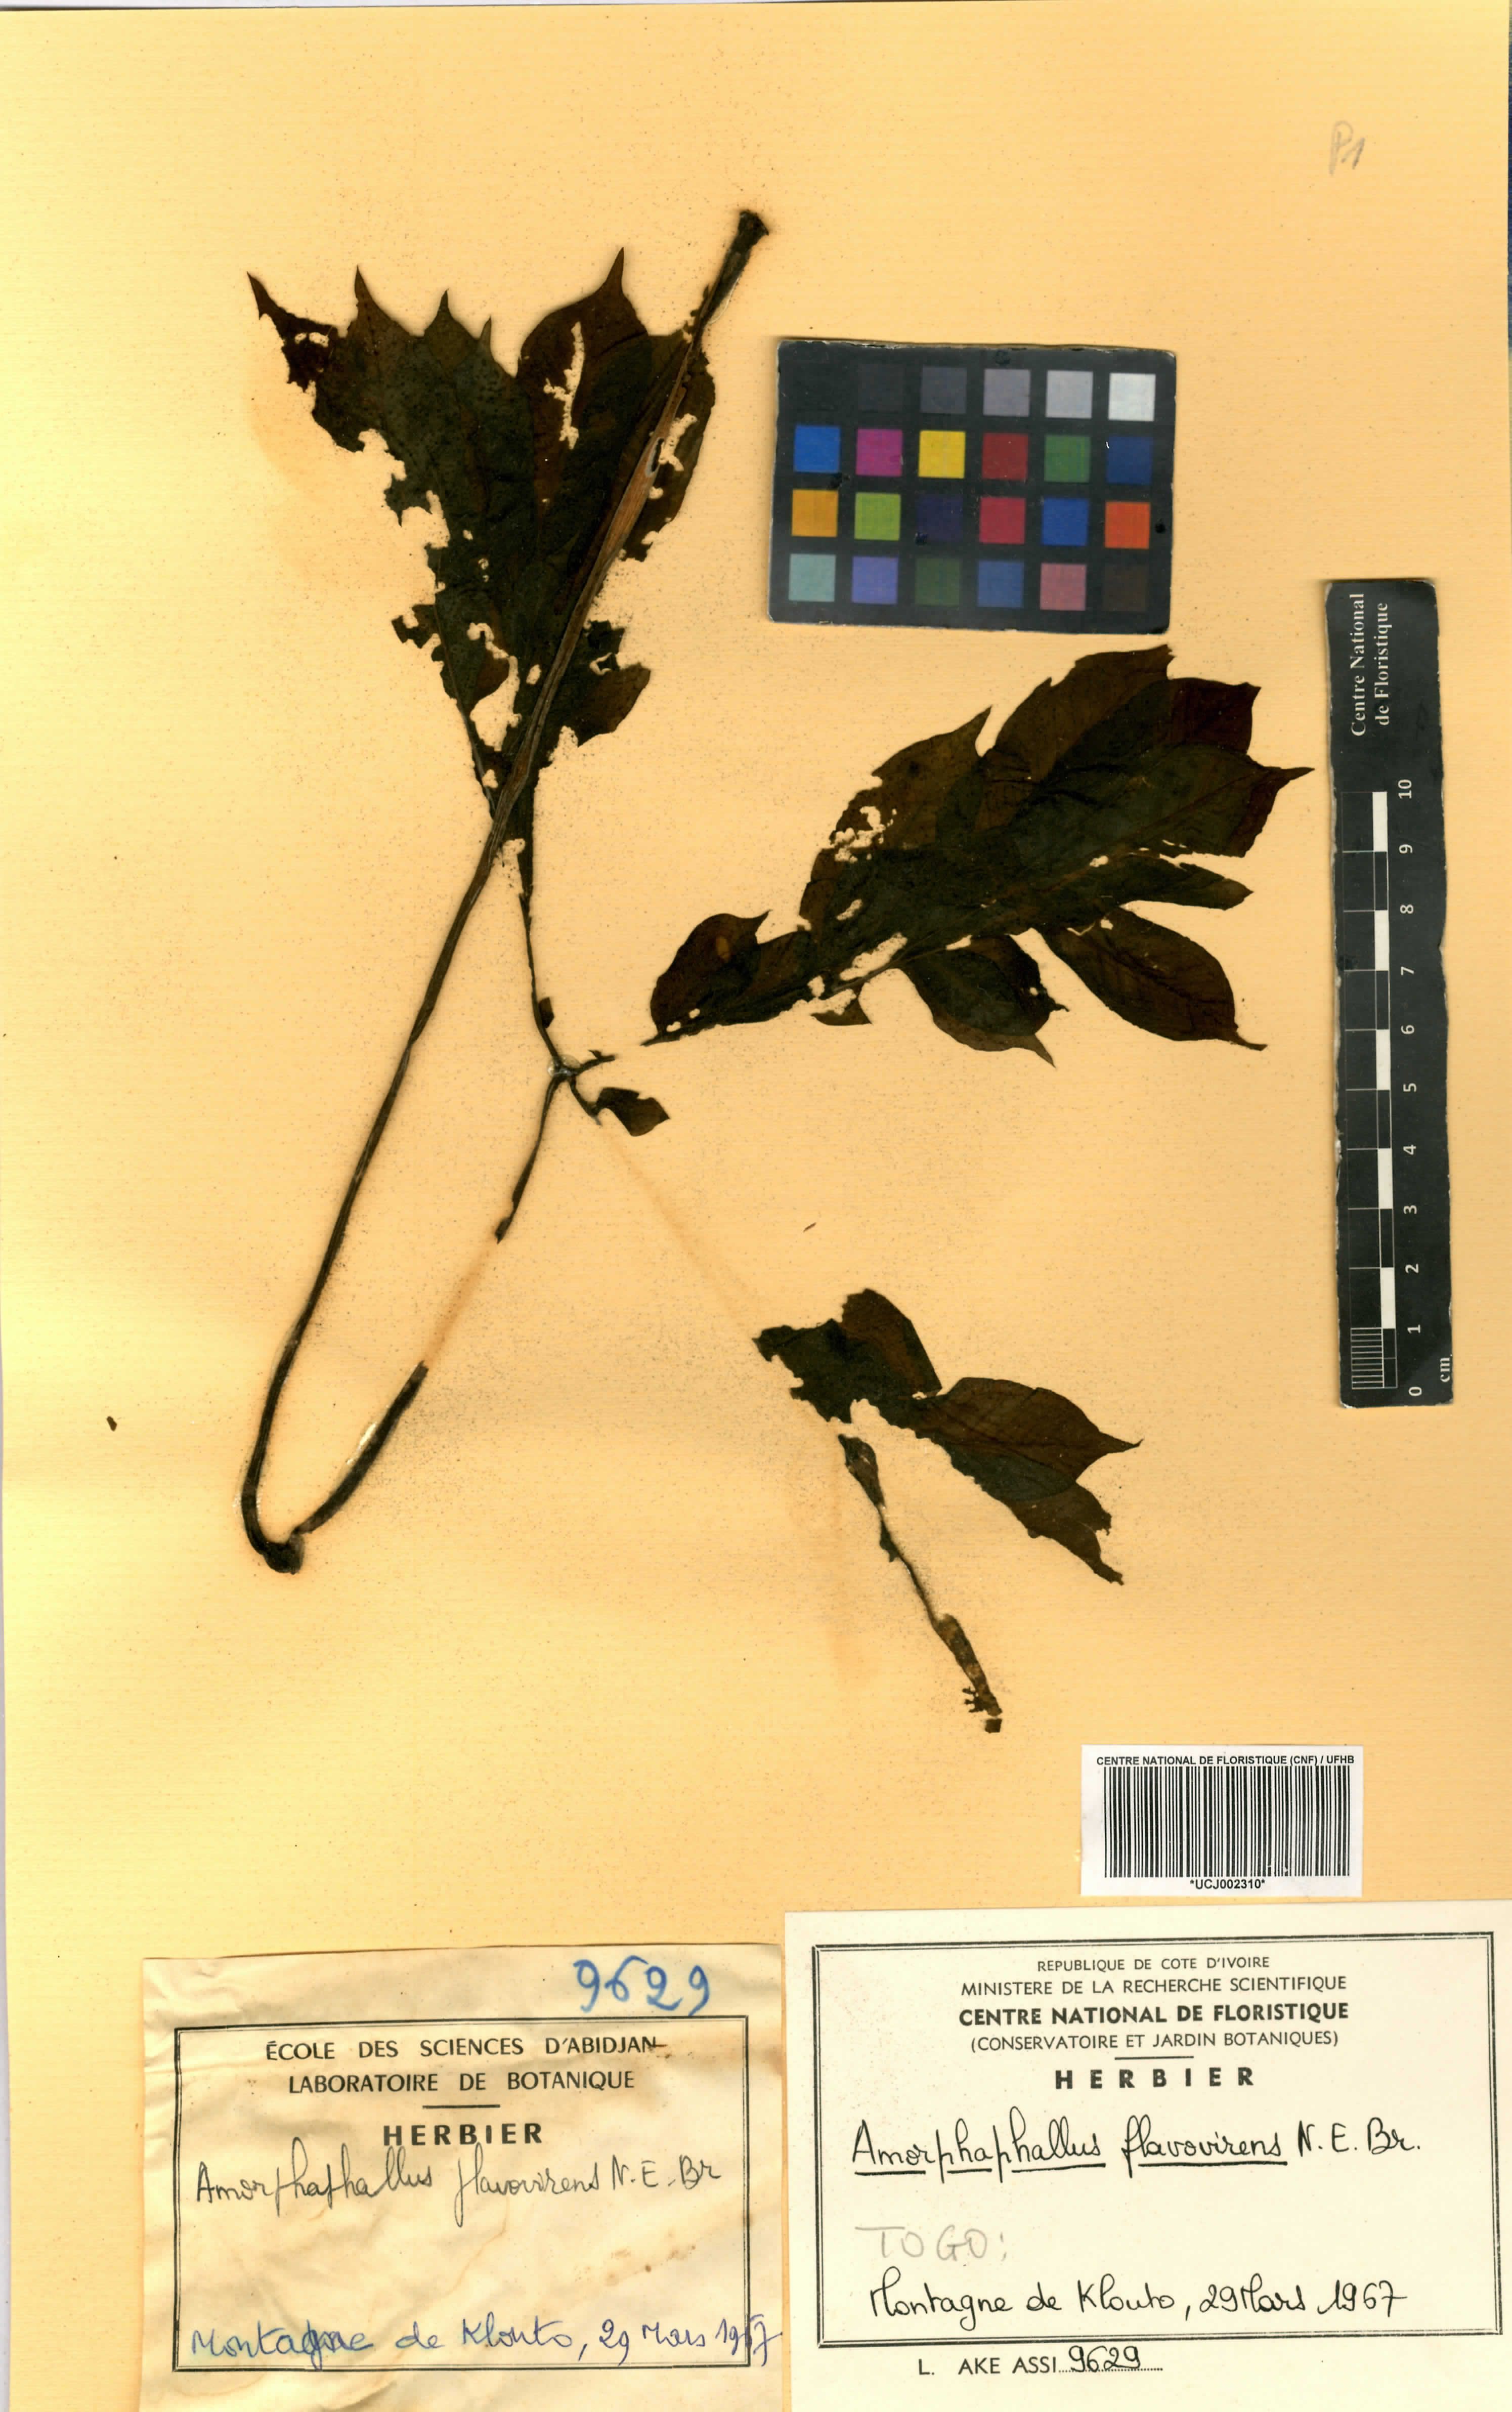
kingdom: Plantae
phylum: Tracheophyta
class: Liliopsida
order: Alismatales
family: Araceae
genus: Amorphophallus
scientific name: Amorphophallus baumannii
